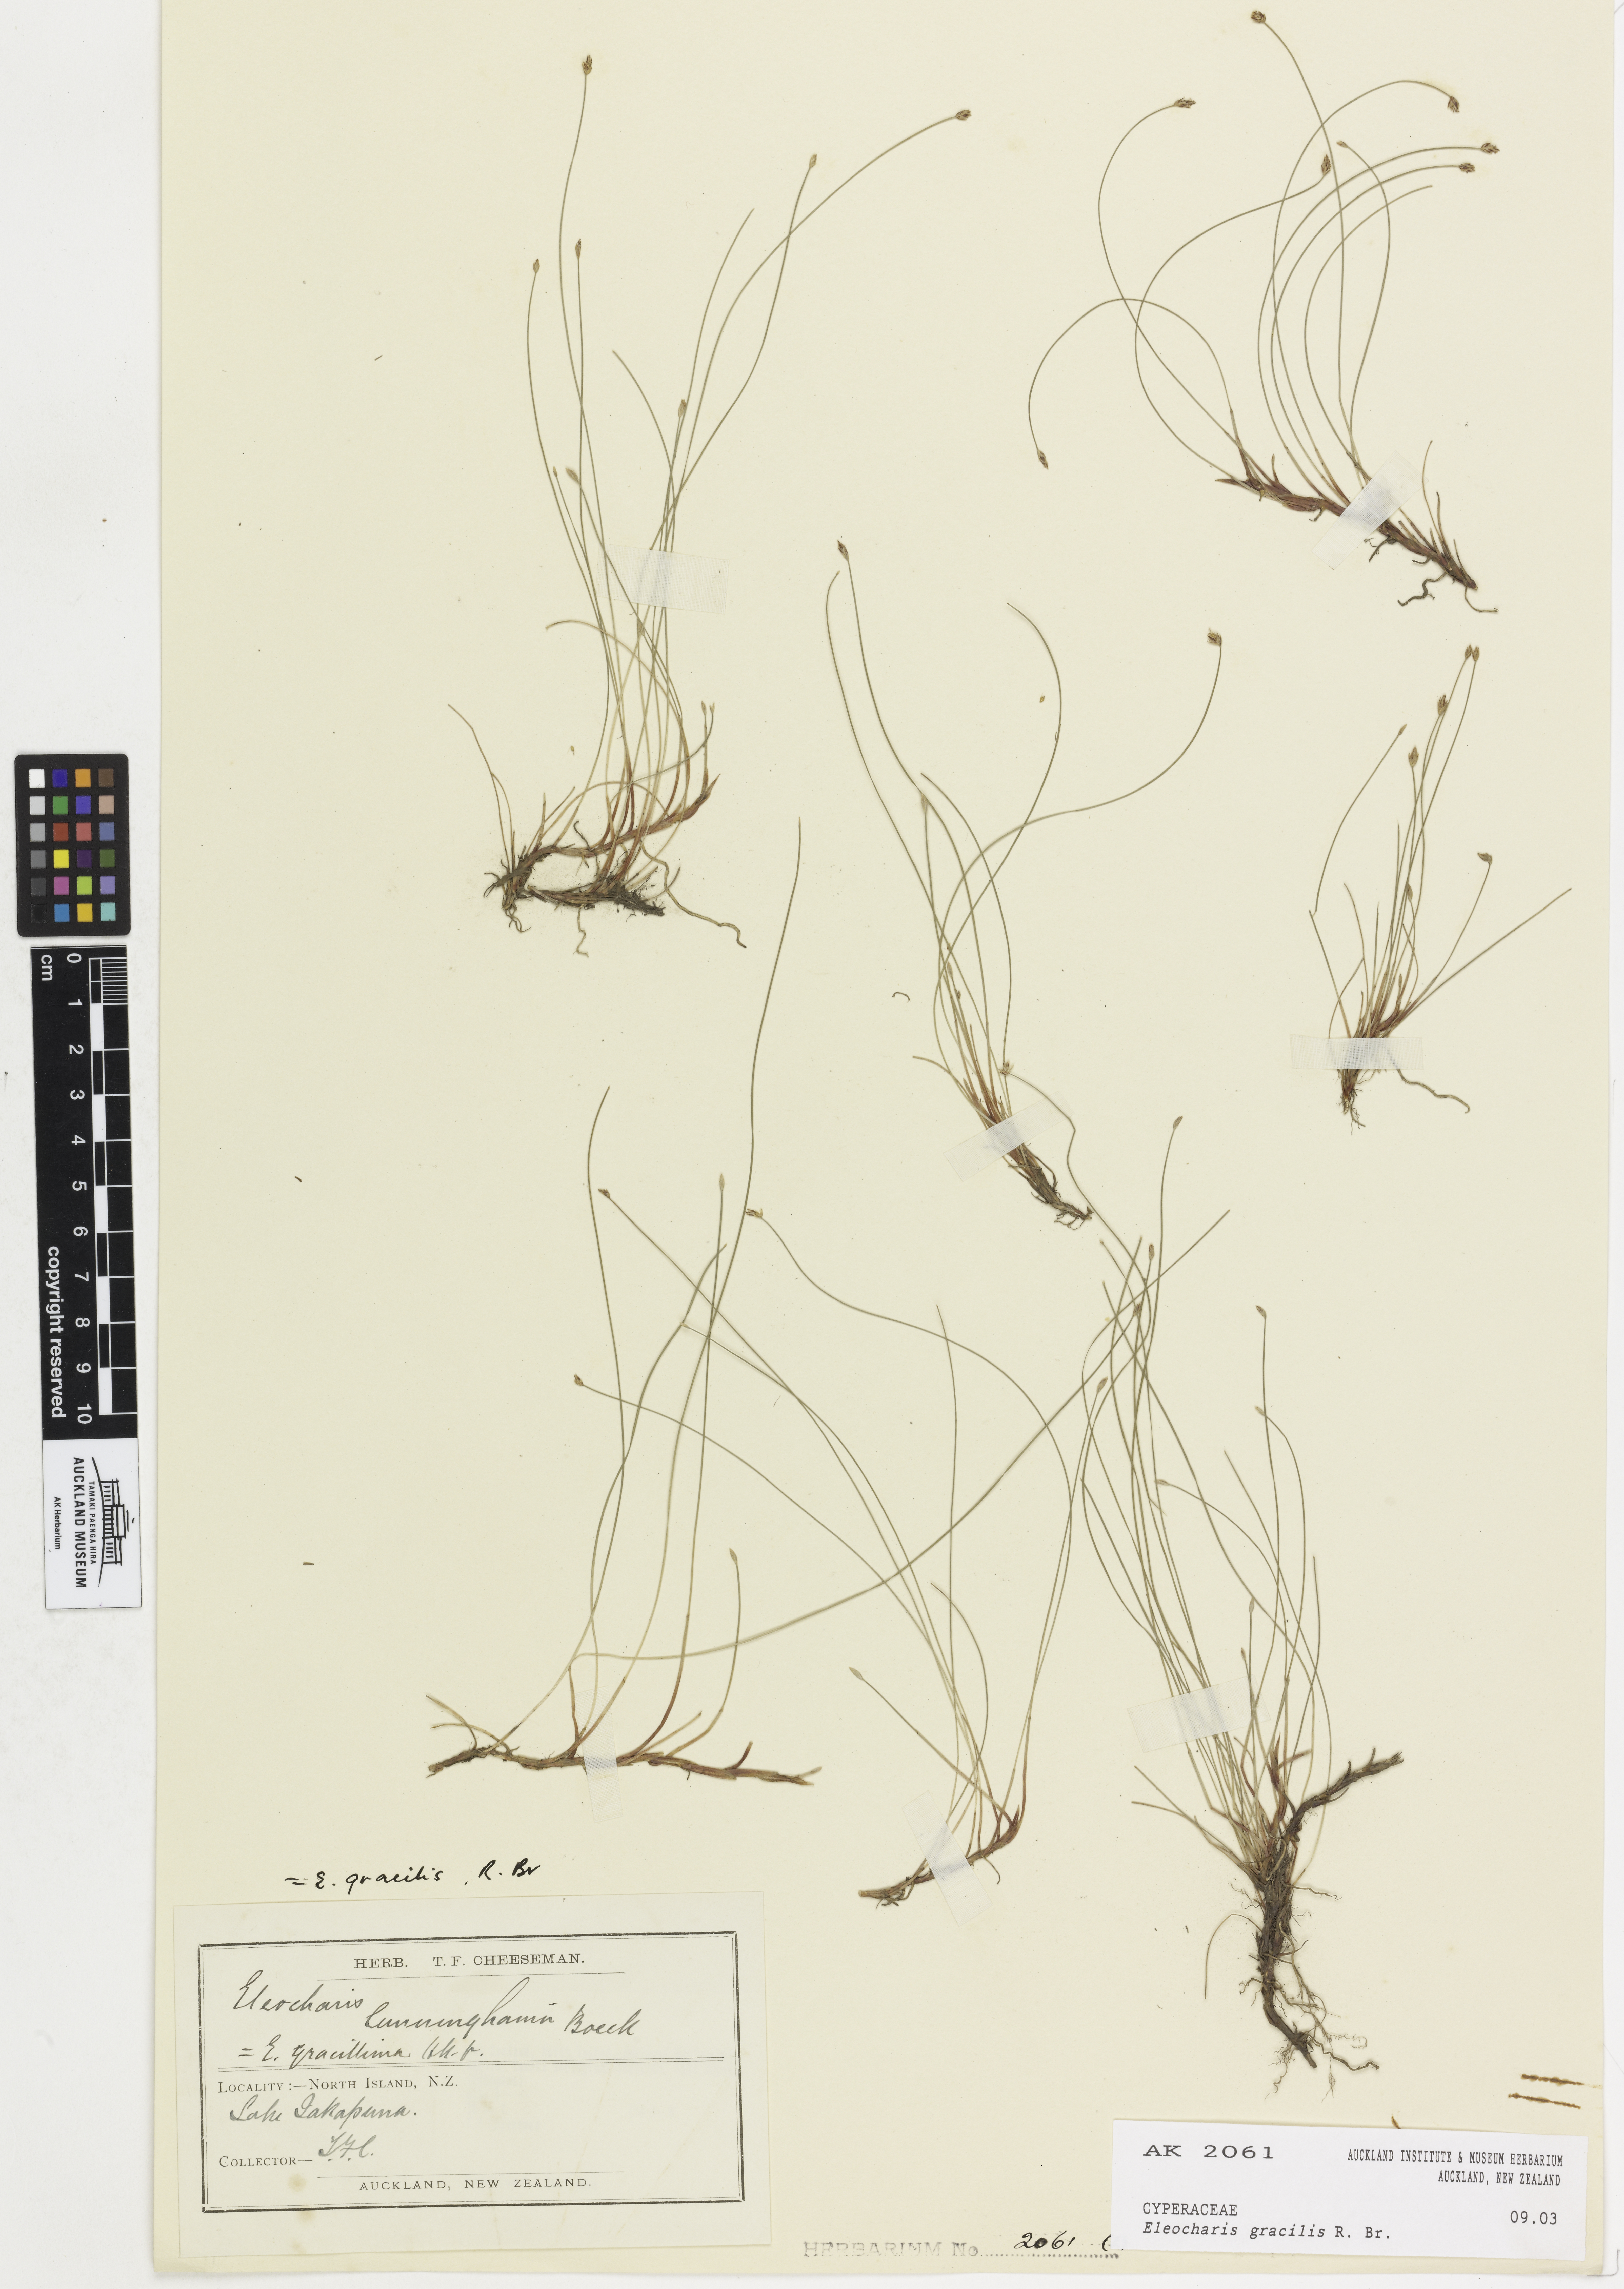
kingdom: Plantae
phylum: Tracheophyta
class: Liliopsida
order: Poales
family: Cyperaceae
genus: Eleocharis
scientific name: Eleocharis gracilis
